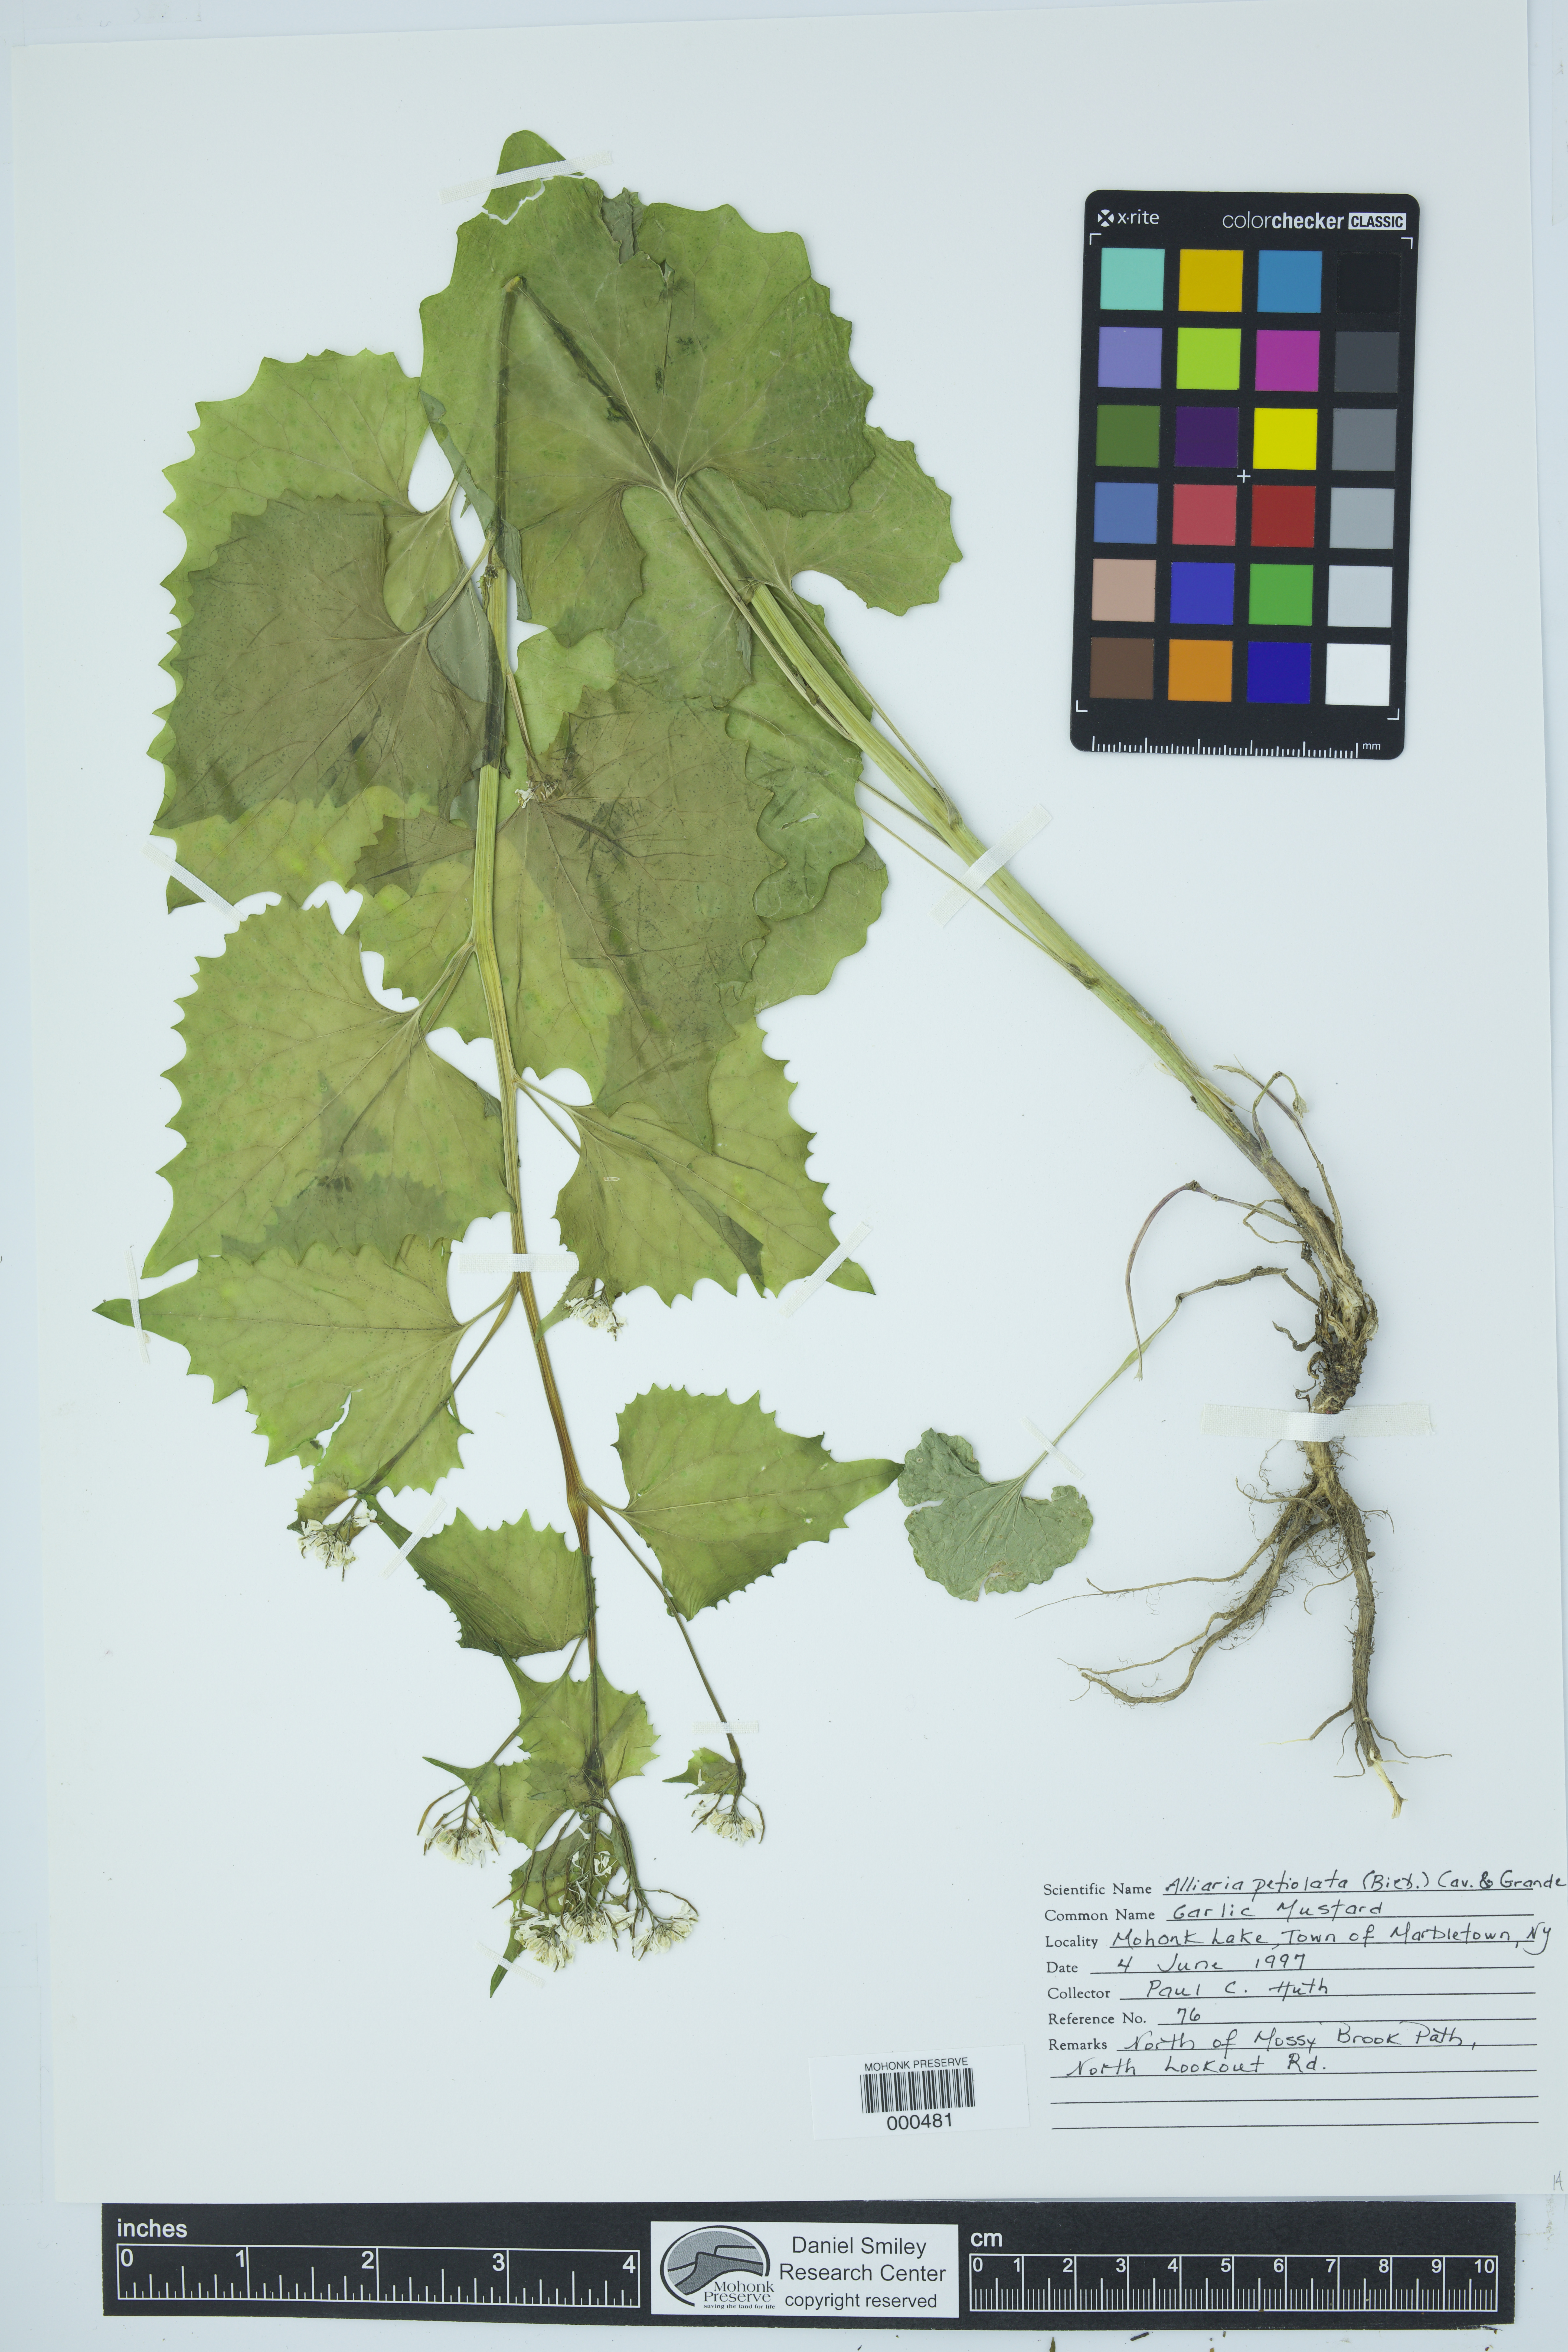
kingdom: Plantae
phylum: Tracheophyta
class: Magnoliopsida
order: Brassicales
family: Brassicaceae
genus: Alliaria
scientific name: Alliaria petiolata
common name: Garlic mustard
